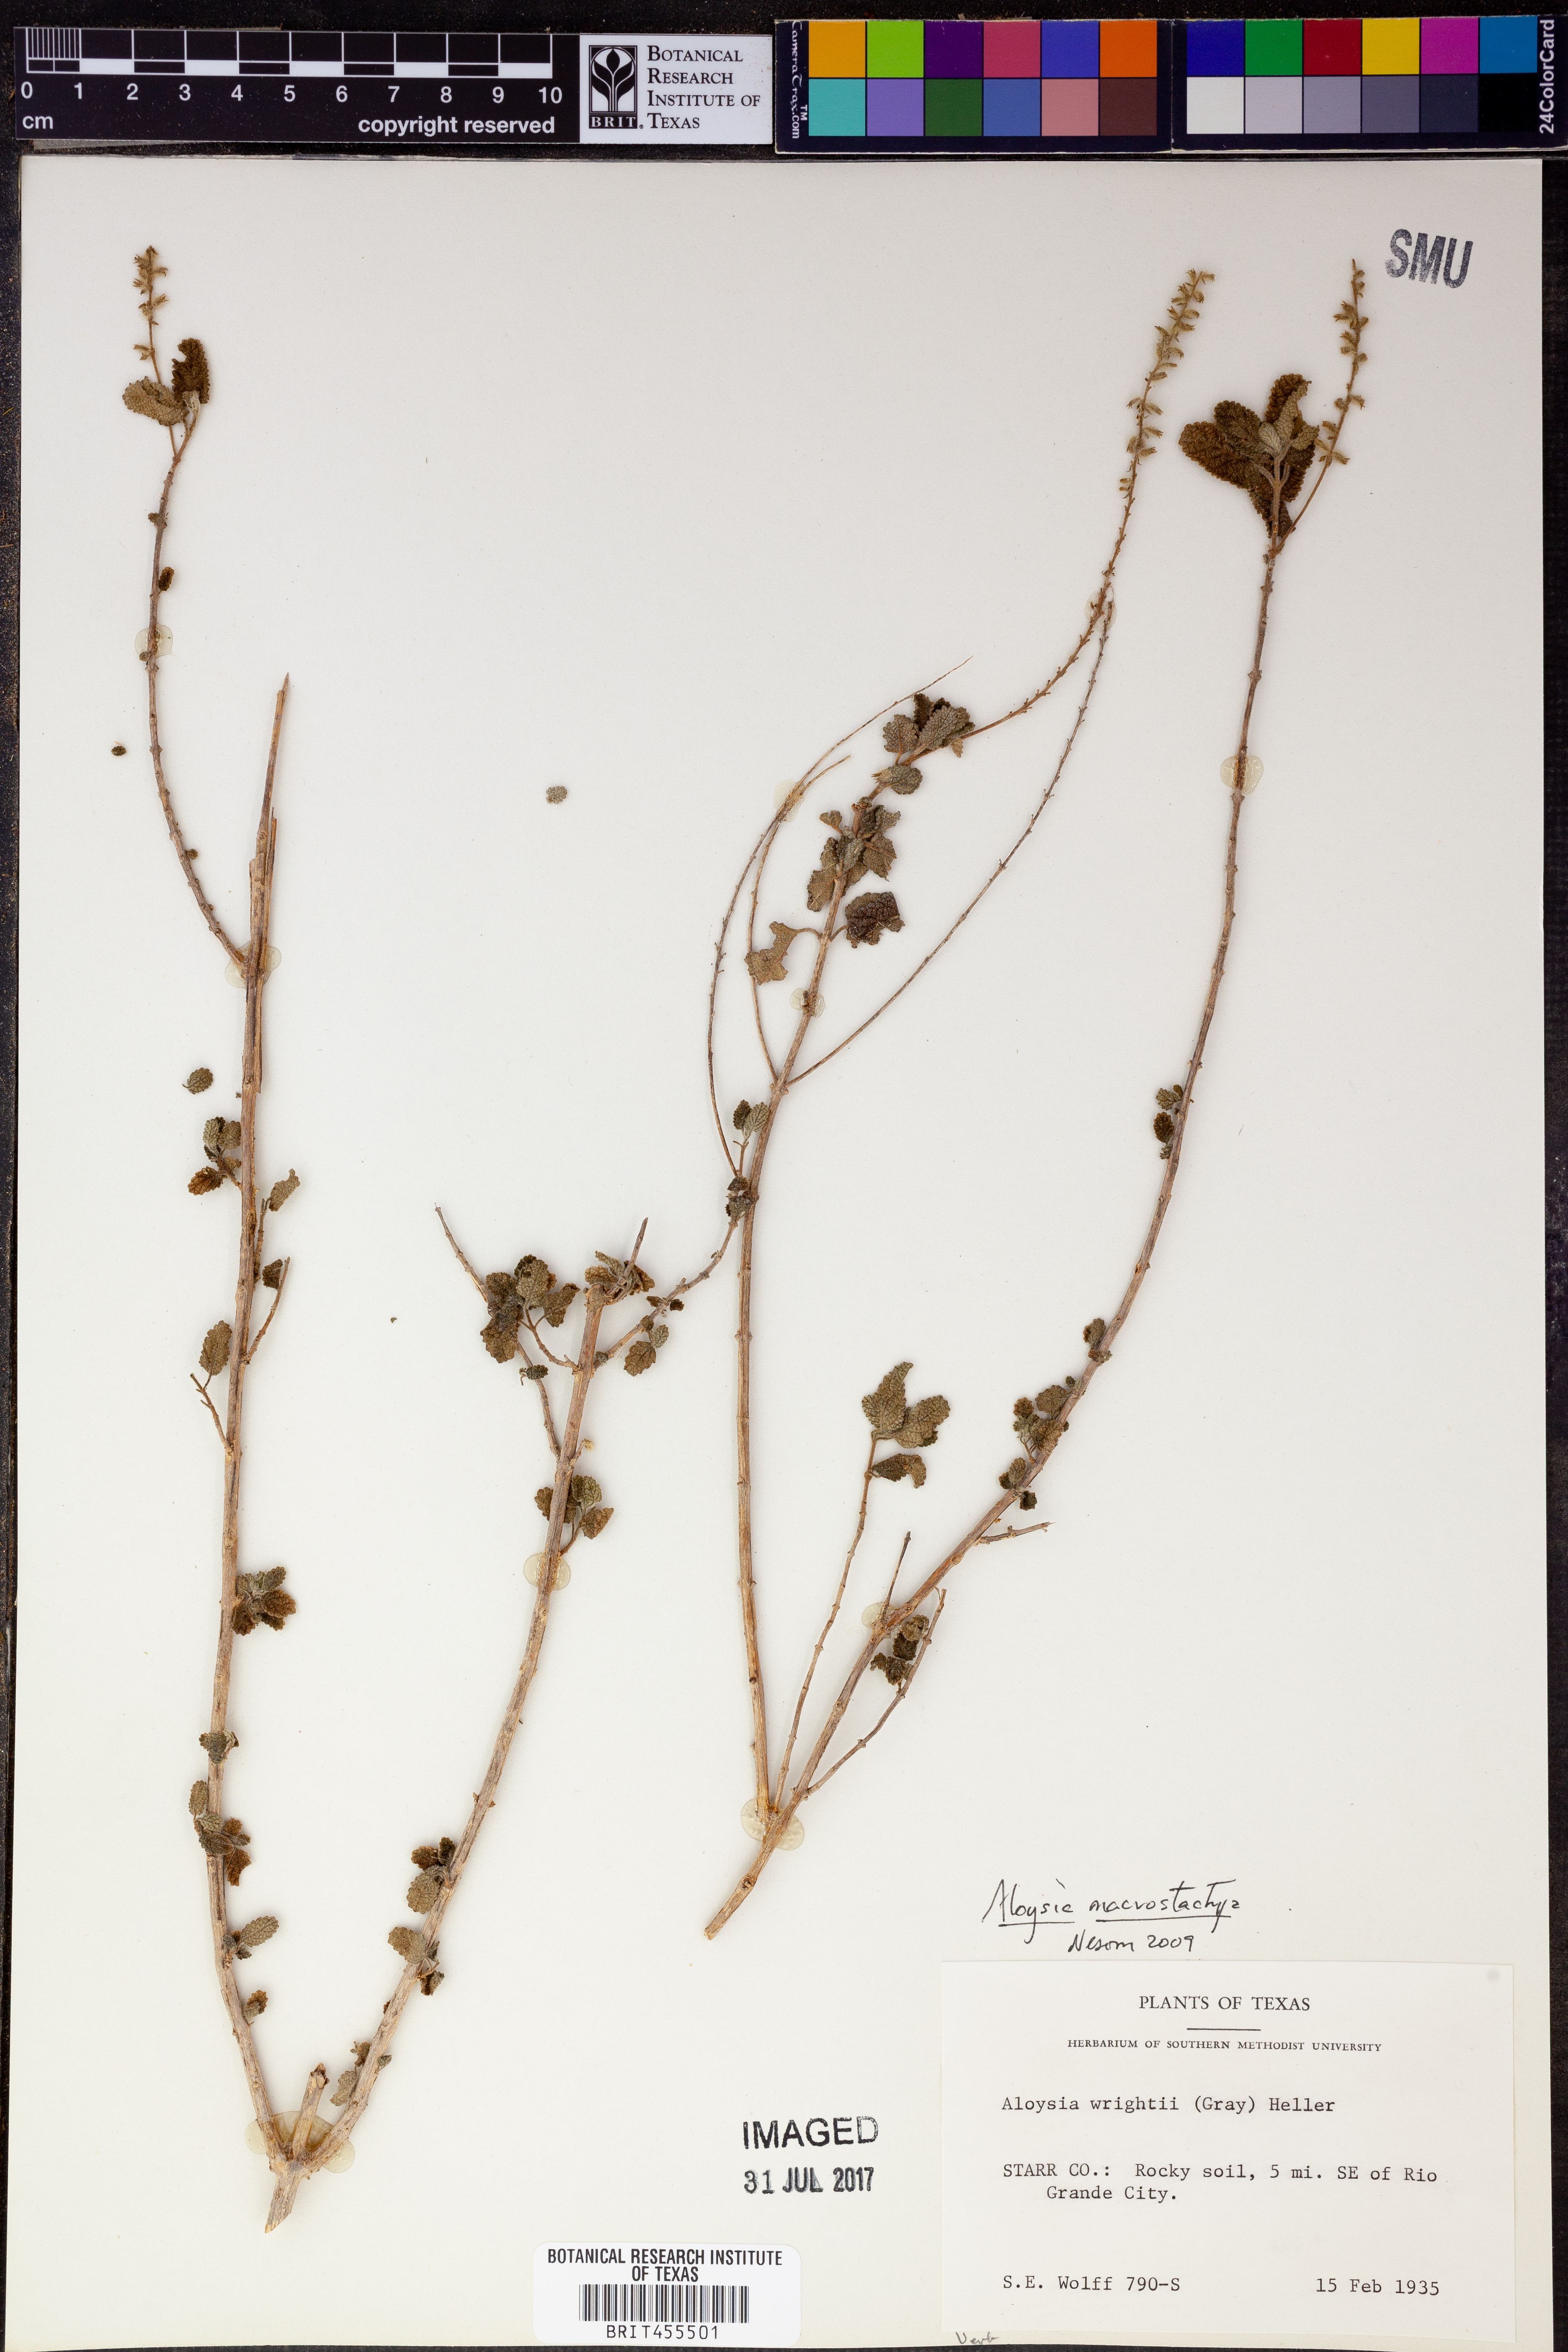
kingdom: Plantae
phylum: Tracheophyta
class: Magnoliopsida
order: Lamiales
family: Verbenaceae
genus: Aloysia
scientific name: Aloysia macrostachya
